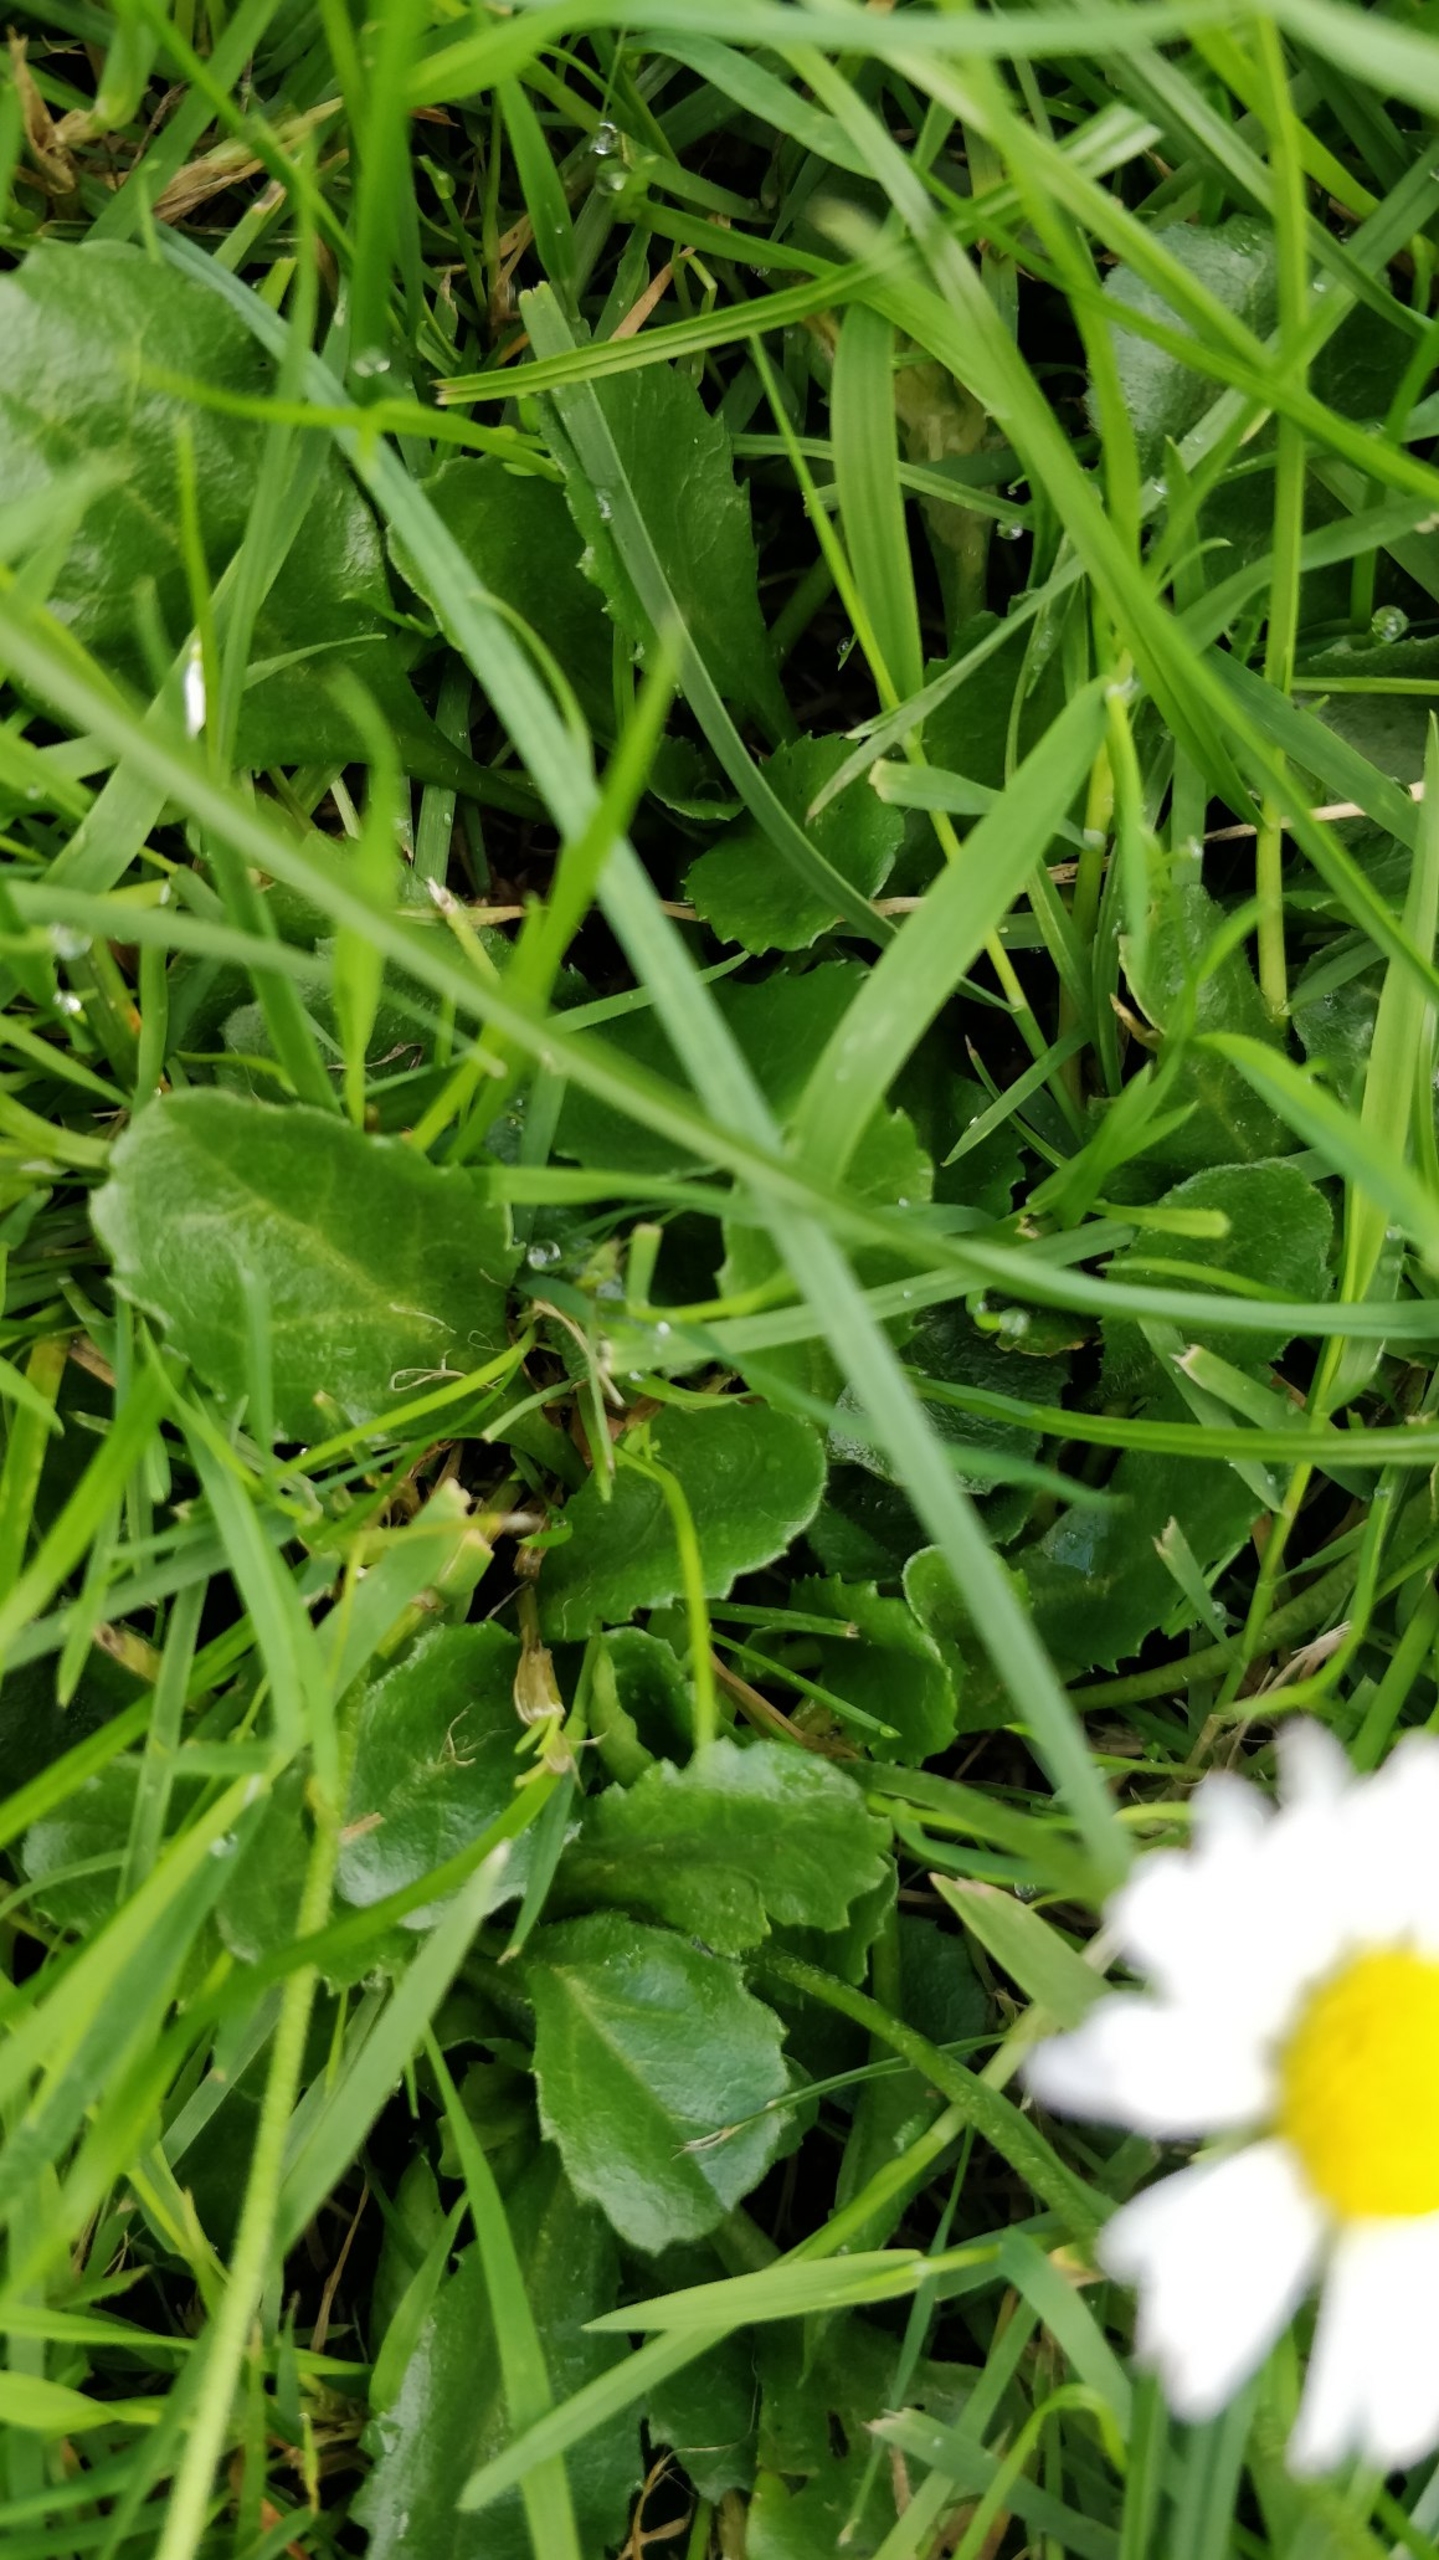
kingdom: Plantae
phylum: Tracheophyta
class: Magnoliopsida
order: Asterales
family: Asteraceae
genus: Bellis
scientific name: Bellis perennis
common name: Tusindfryd
